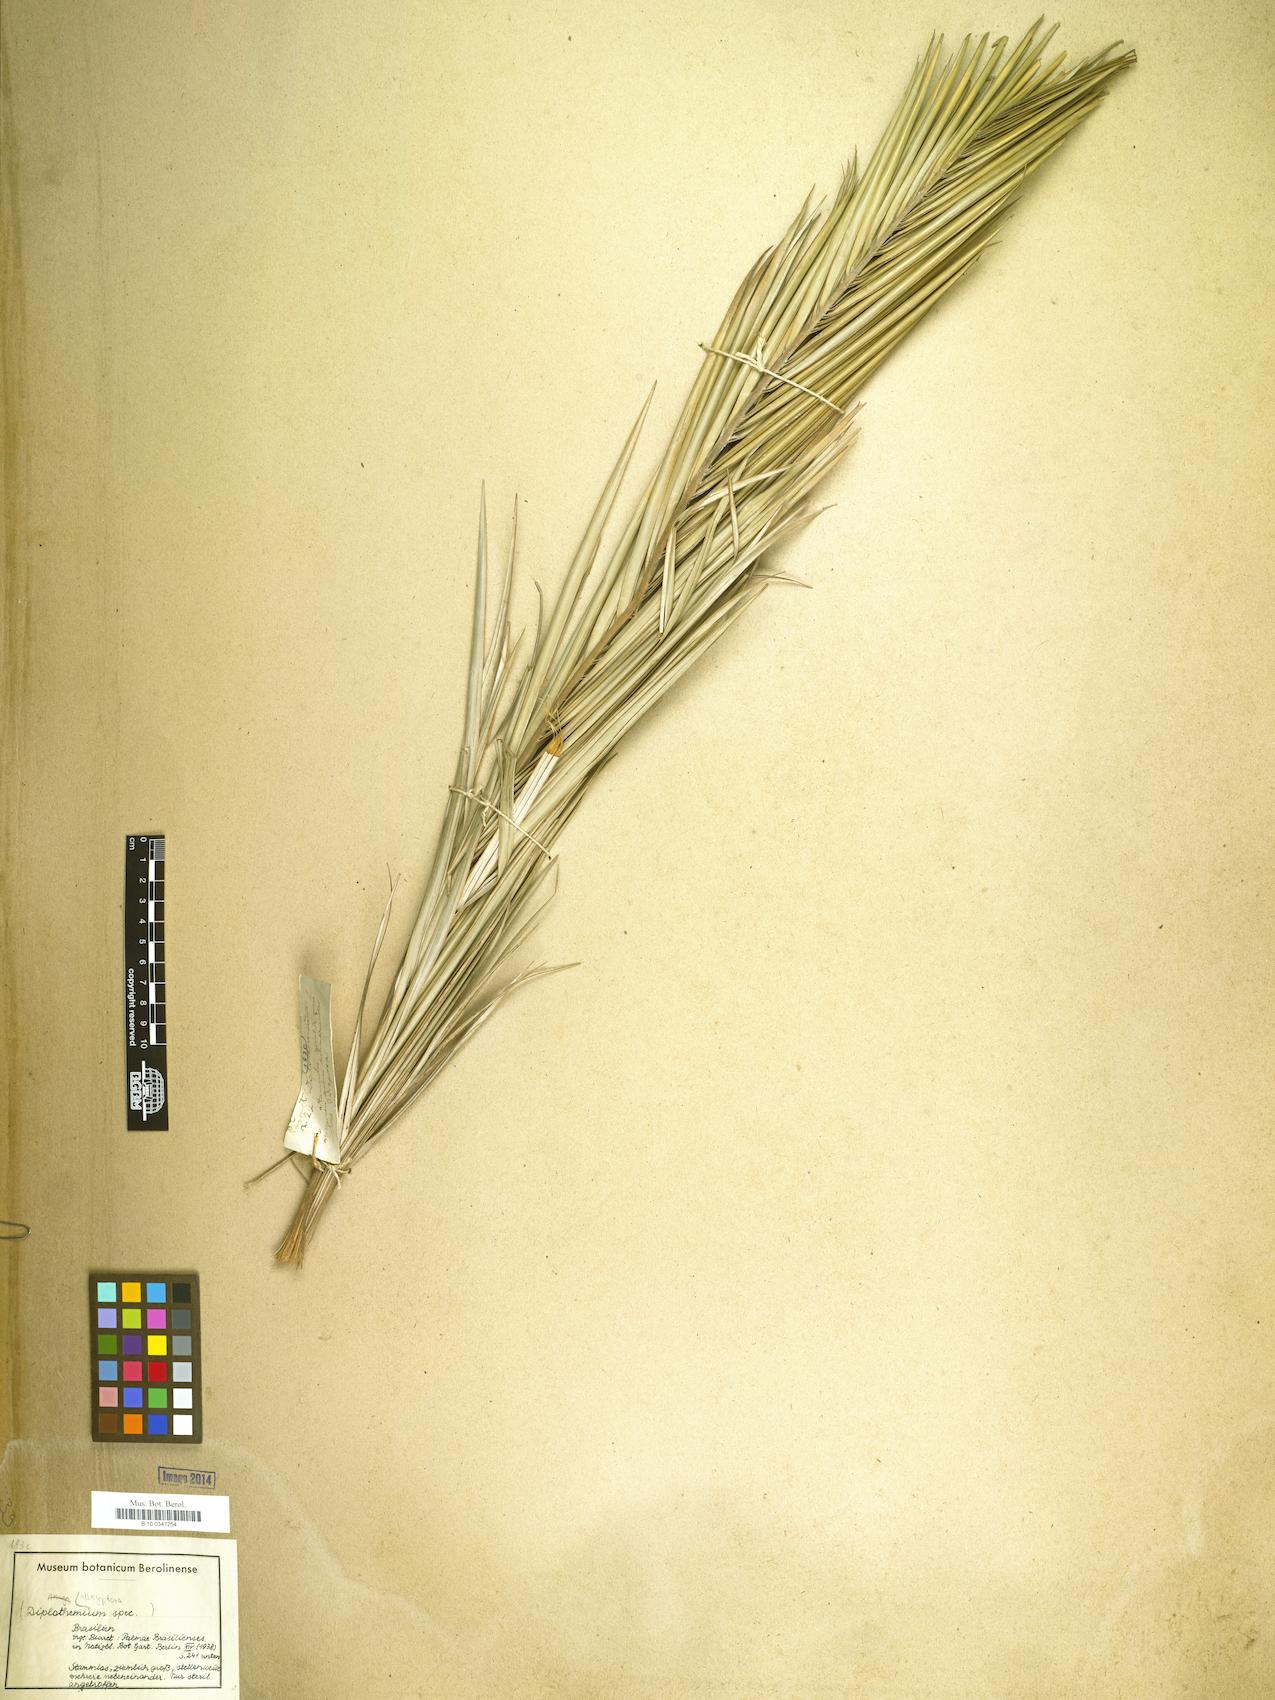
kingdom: Plantae
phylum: Tracheophyta
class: Liliopsida
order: Arecales
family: Arecaceae
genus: Allagoptera
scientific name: Allagoptera
